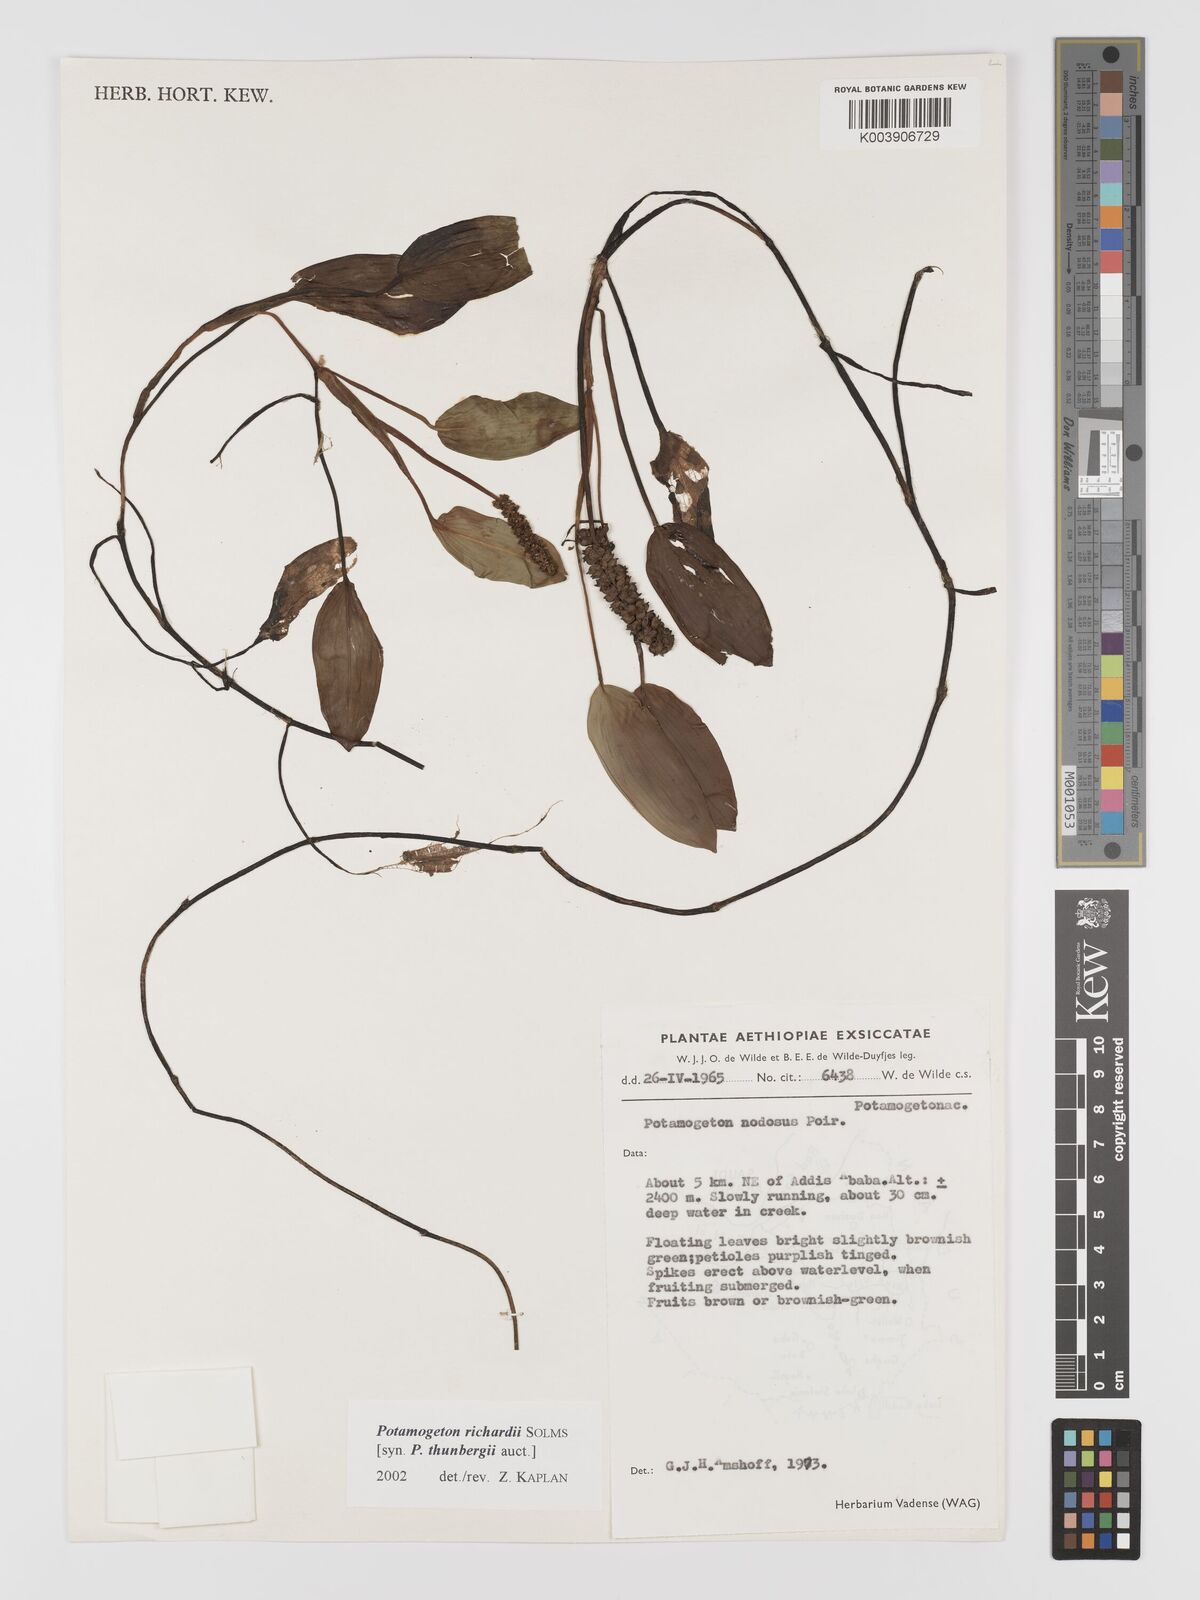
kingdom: Plantae
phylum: Tracheophyta
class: Liliopsida
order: Alismatales
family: Potamogetonaceae
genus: Potamogeton
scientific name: Potamogeton richardii
